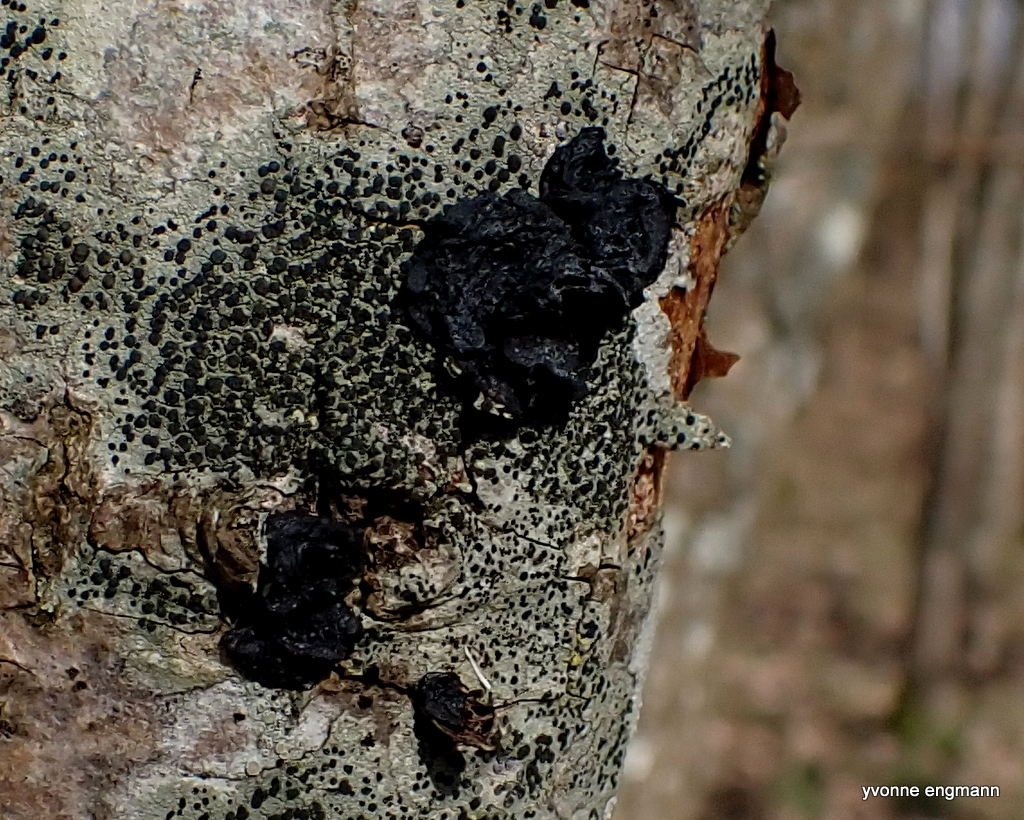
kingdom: Fungi
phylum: Basidiomycota
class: Agaricomycetes
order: Auriculariales
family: Auriculariaceae
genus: Exidia
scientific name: Exidia glandulosa
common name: ege-bævretop
